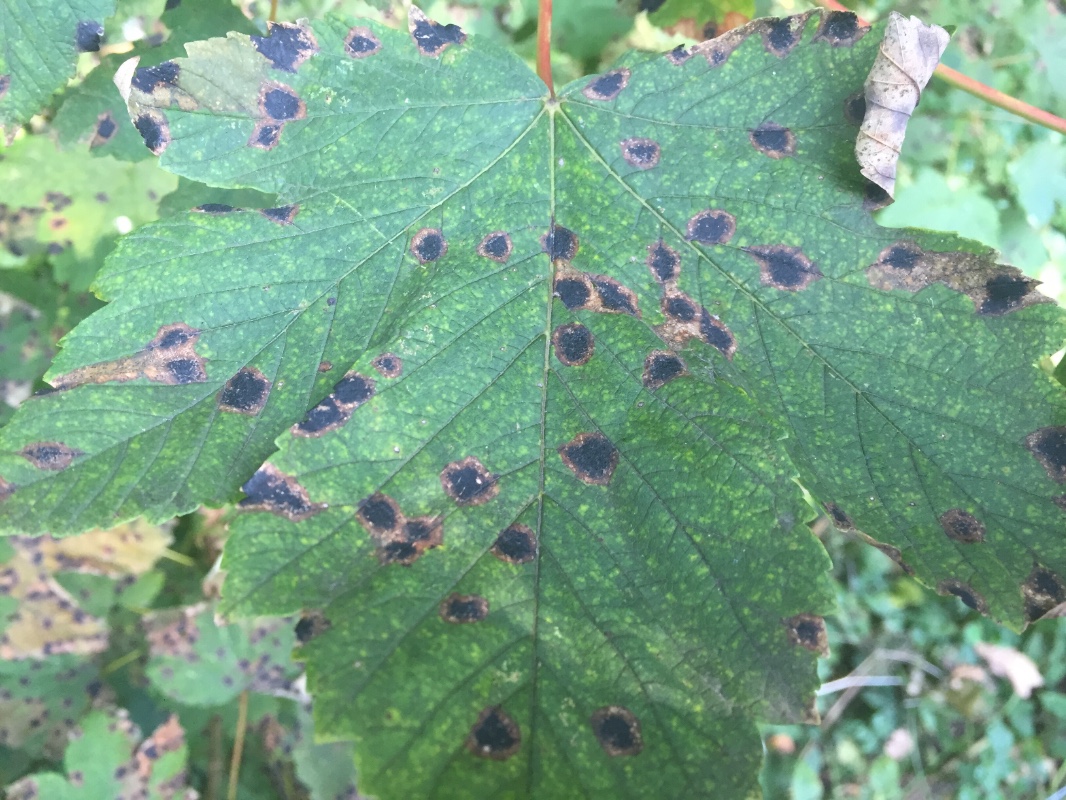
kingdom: Fungi
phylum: Ascomycota
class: Leotiomycetes
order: Rhytismatales
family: Rhytismataceae
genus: Rhytisma
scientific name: Rhytisma acerinum
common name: ahorn-rynkeplet
